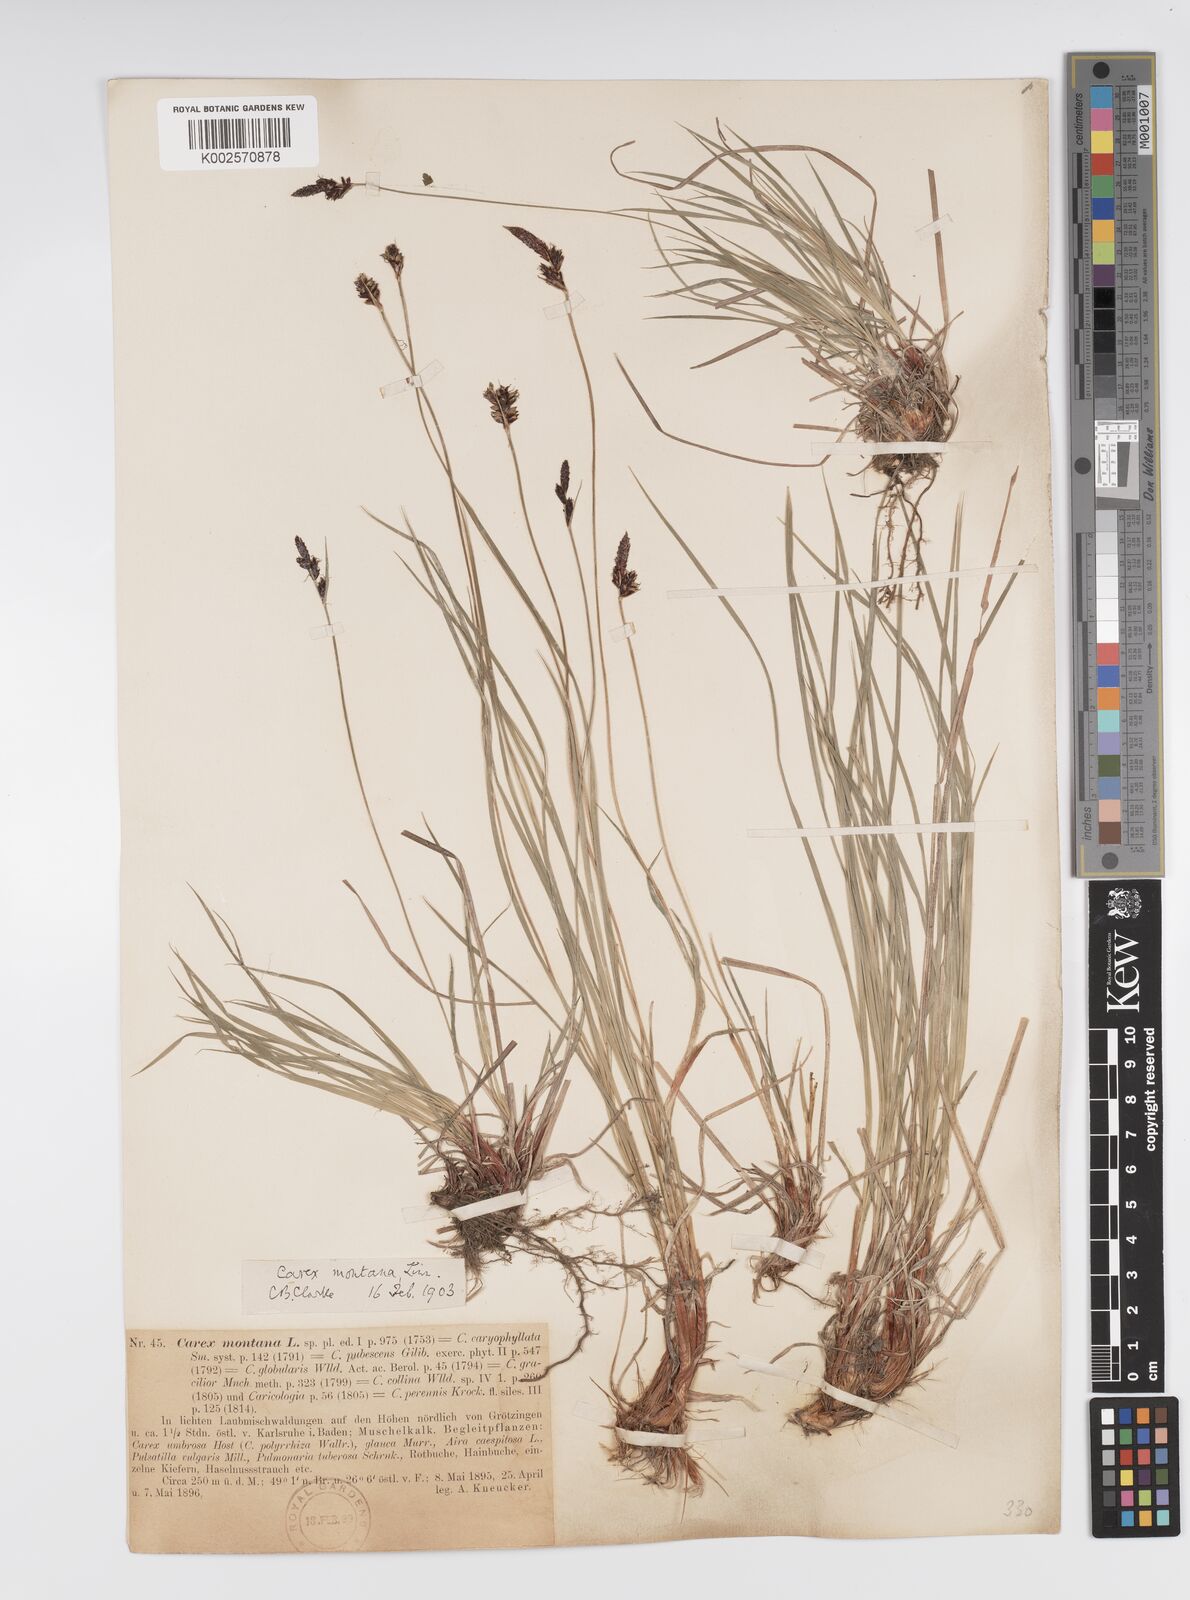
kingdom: Plantae
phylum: Tracheophyta
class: Liliopsida
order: Poales
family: Cyperaceae
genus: Carex
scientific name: Carex montana
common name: Soft-leaved sedge
